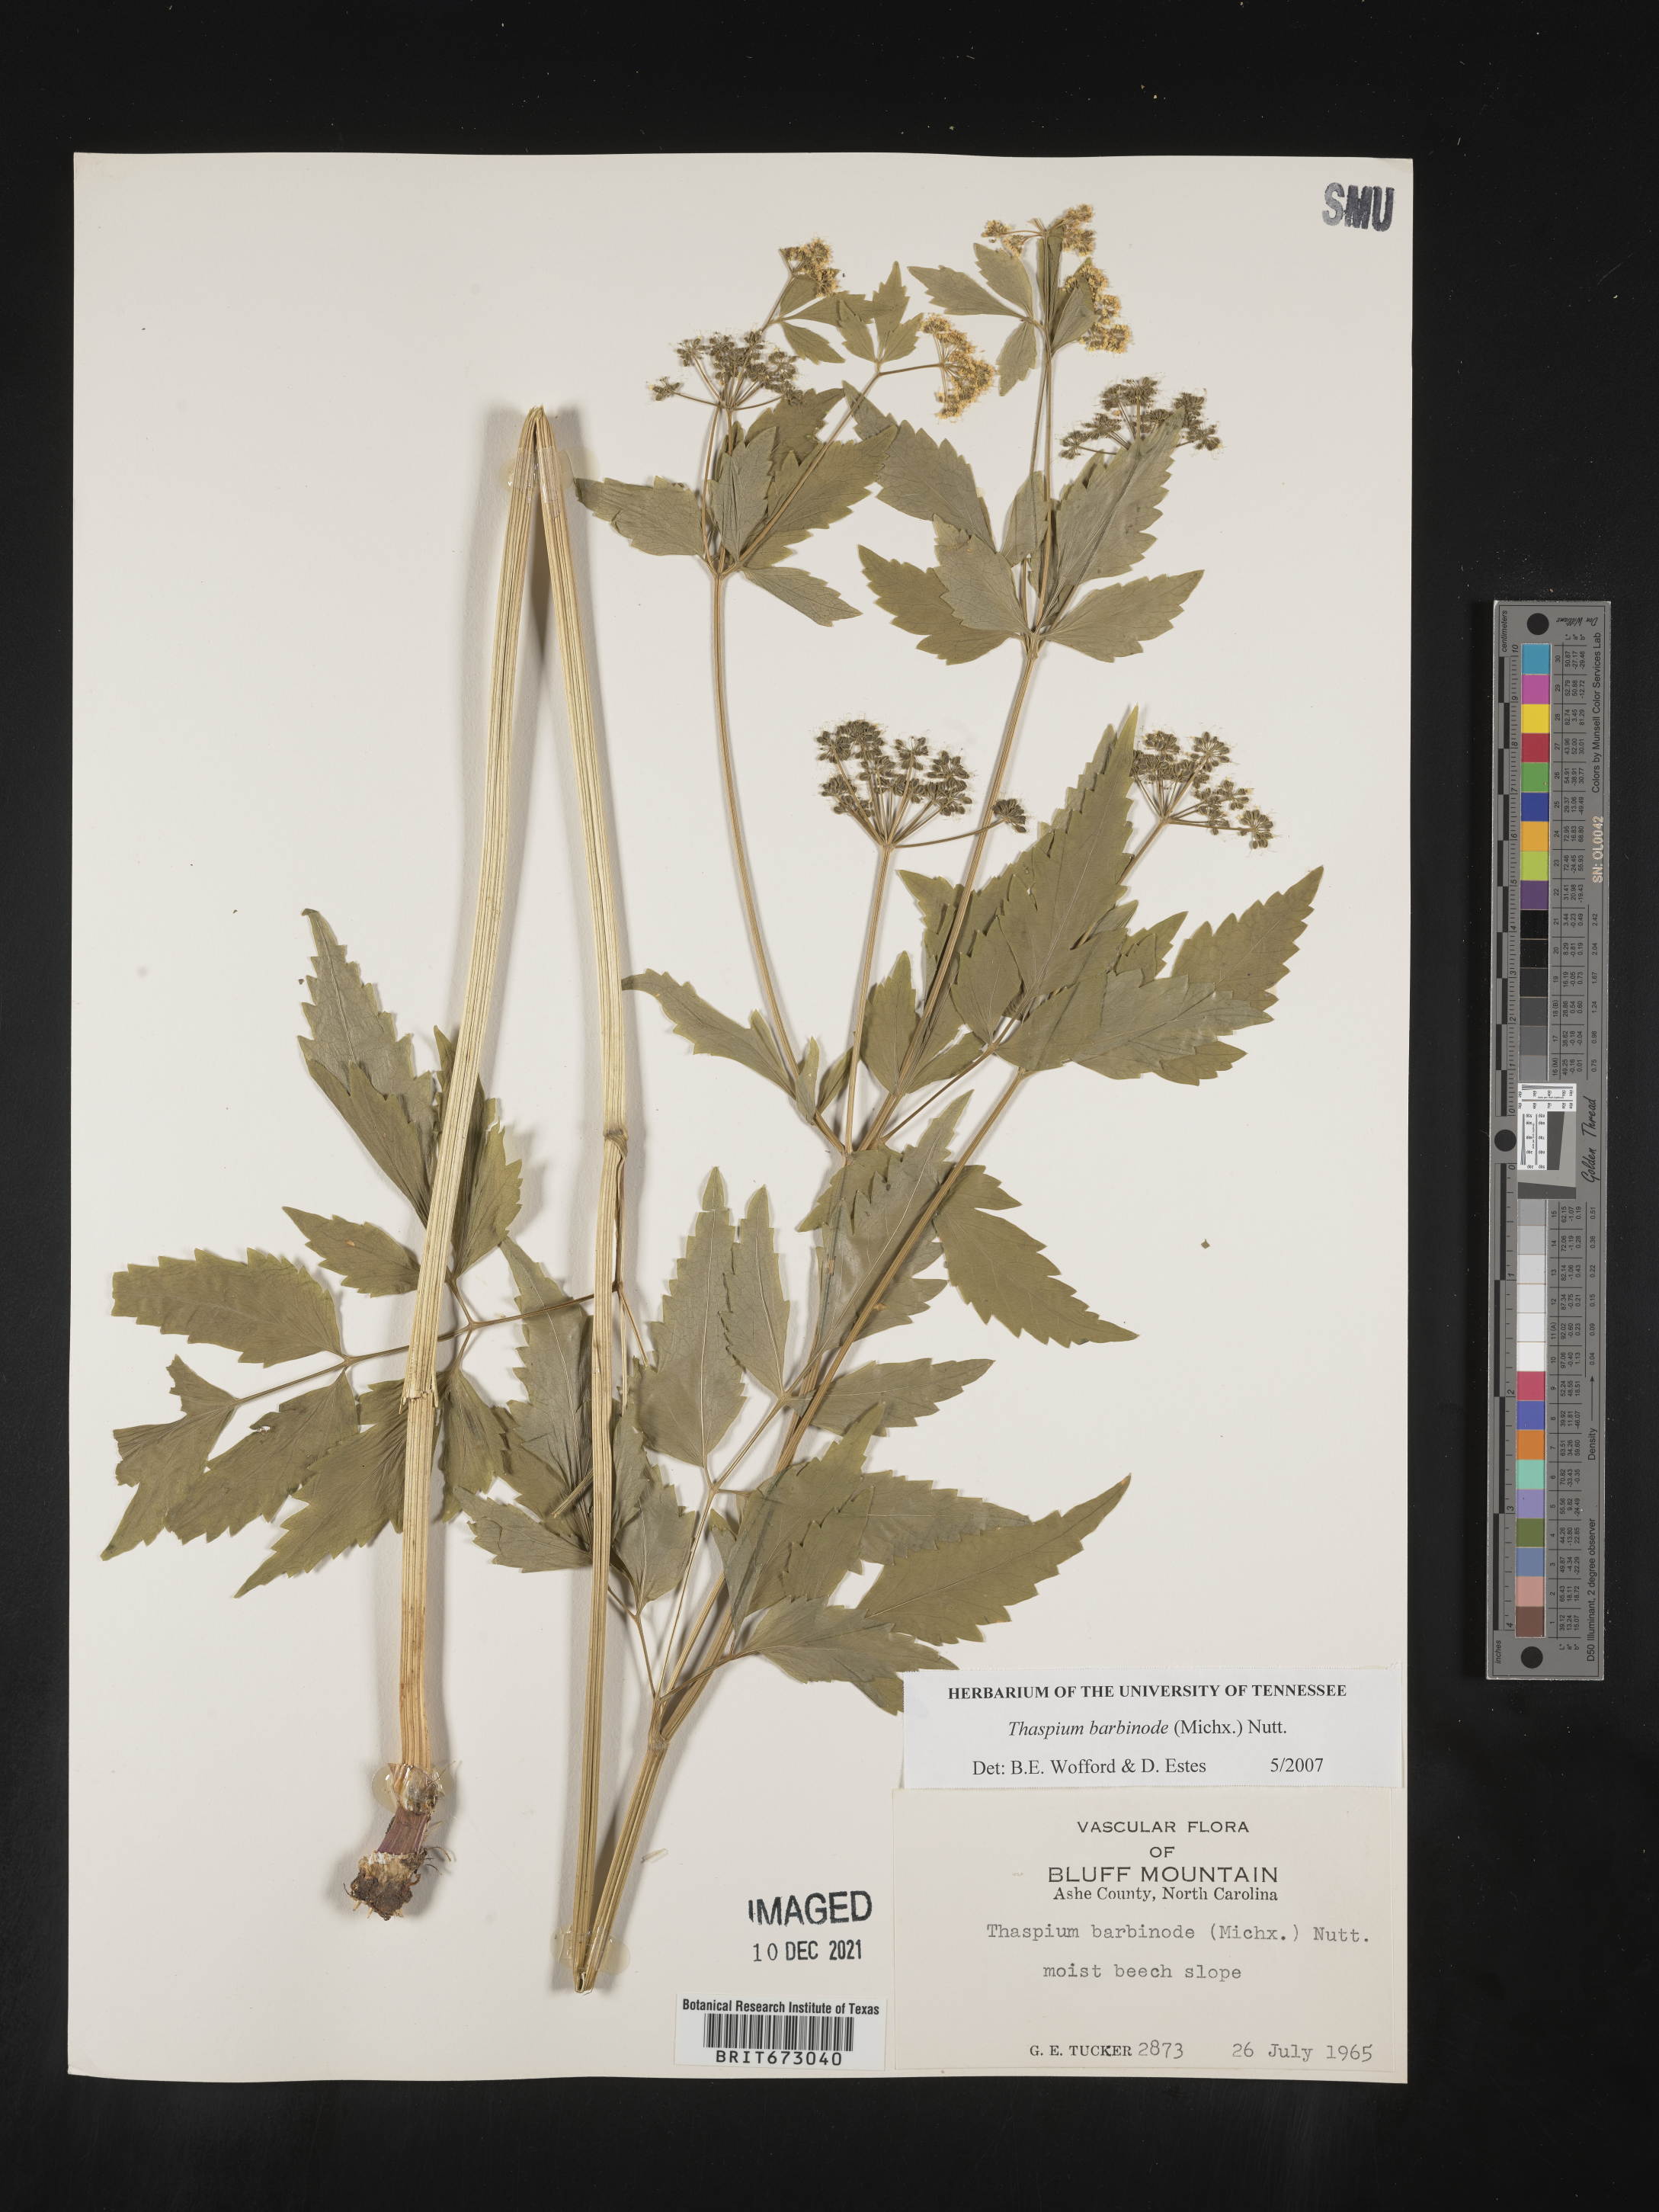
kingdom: Plantae
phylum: Tracheophyta
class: Magnoliopsida
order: Apiales
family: Apiaceae
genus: Thaspium
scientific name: Thaspium barbinode
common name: Bearded meadow-parsnip
